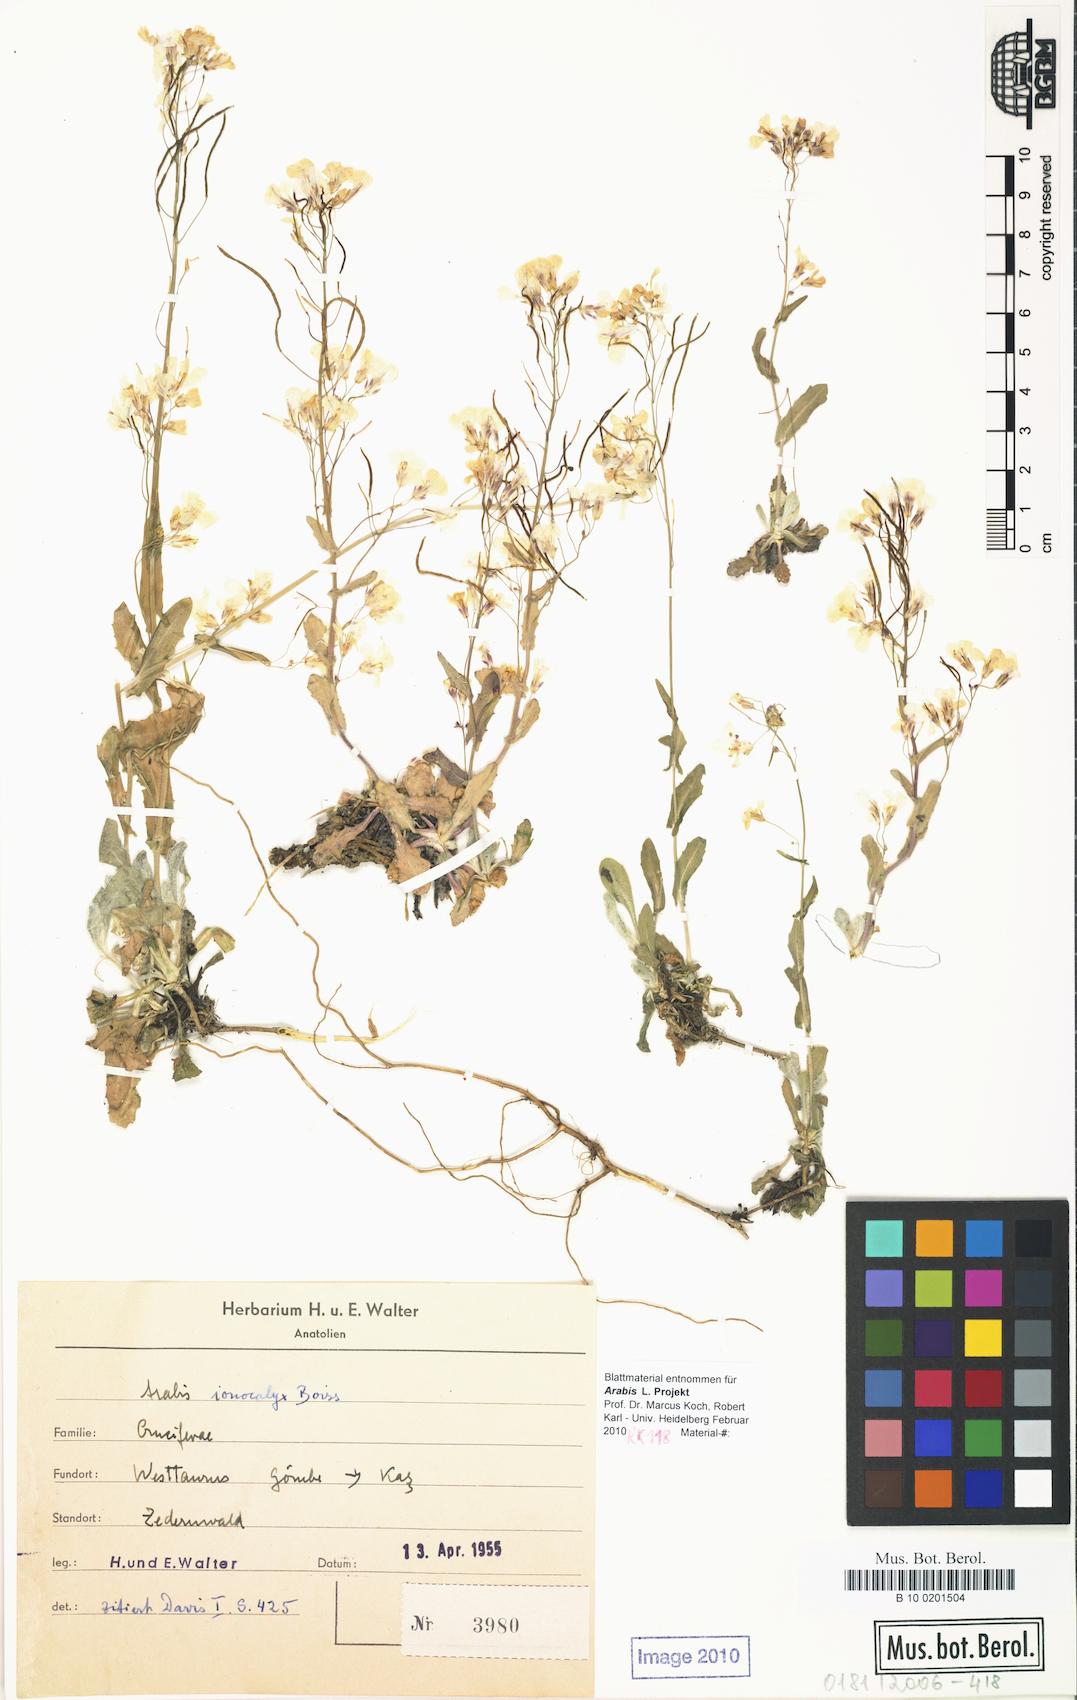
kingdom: Plantae
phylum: Tracheophyta
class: Magnoliopsida
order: Brassicales
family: Brassicaceae
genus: Arabis
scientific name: Arabis ionocalyx
